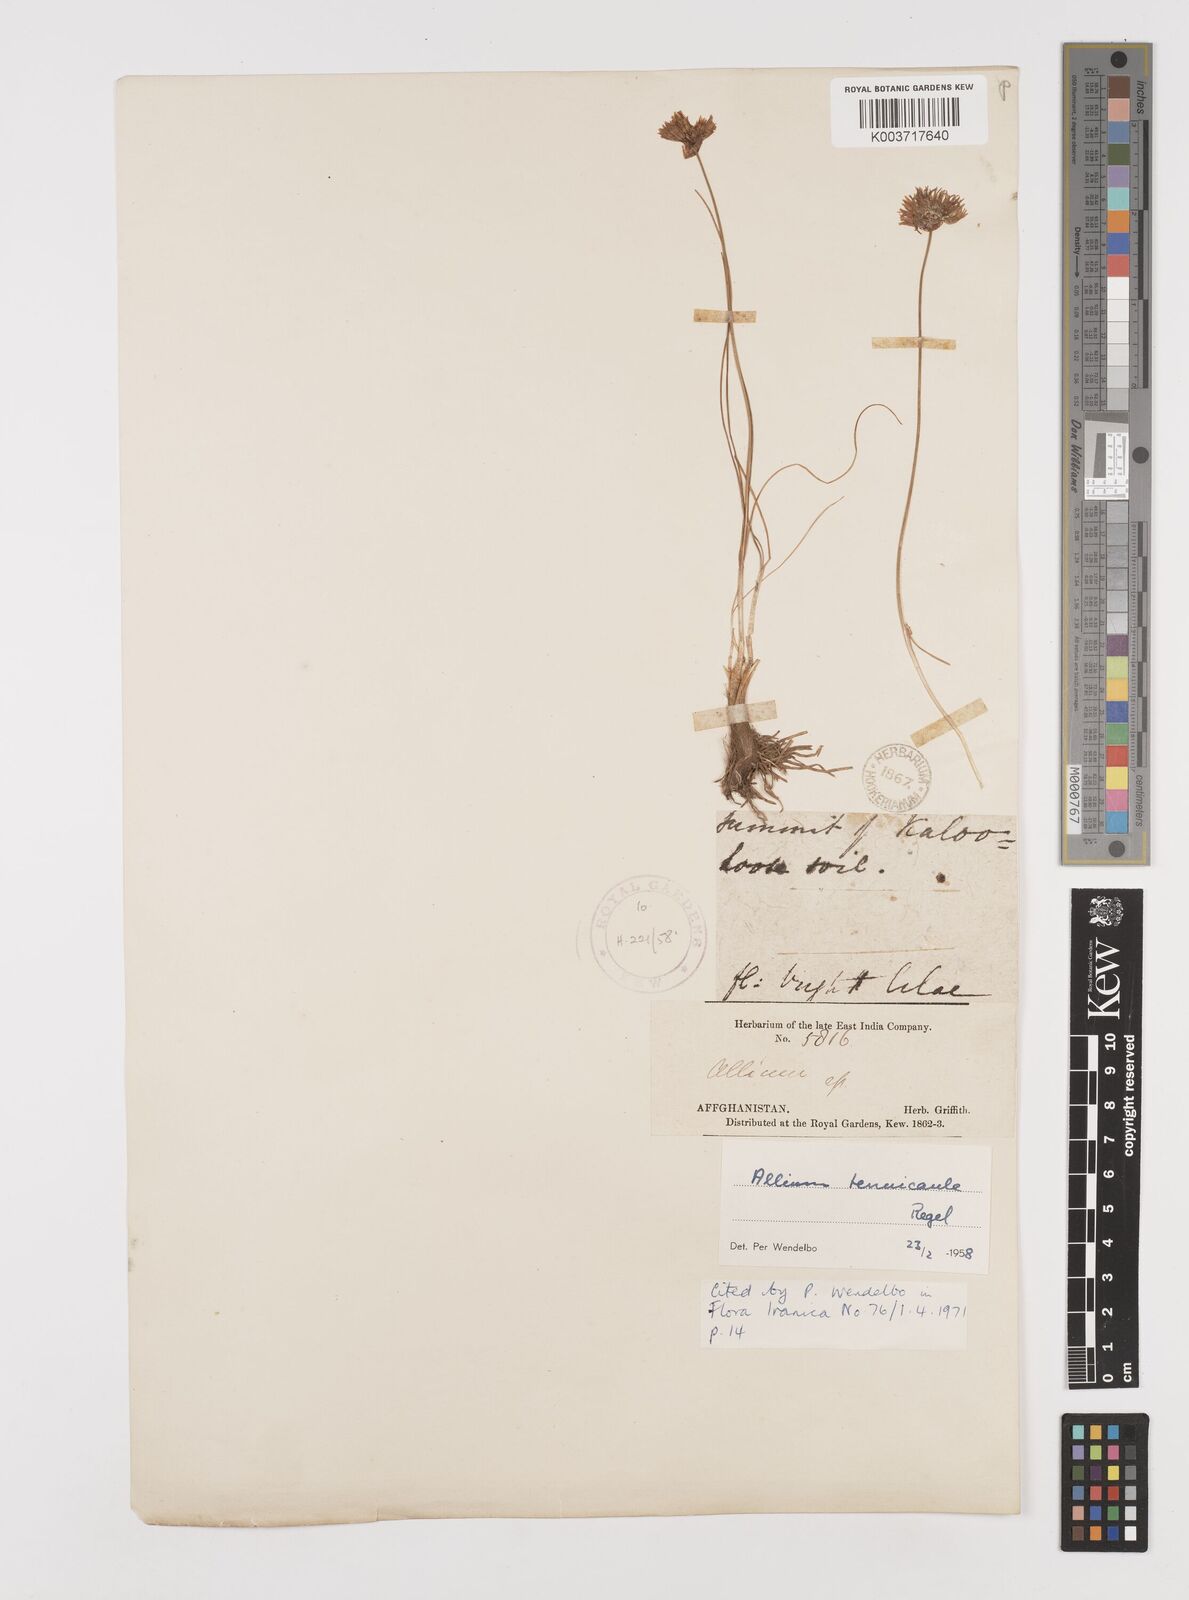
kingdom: Plantae
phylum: Tracheophyta
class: Liliopsida
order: Asparagales
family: Amaryllidaceae
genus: Allium
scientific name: Allium tenuicaule
